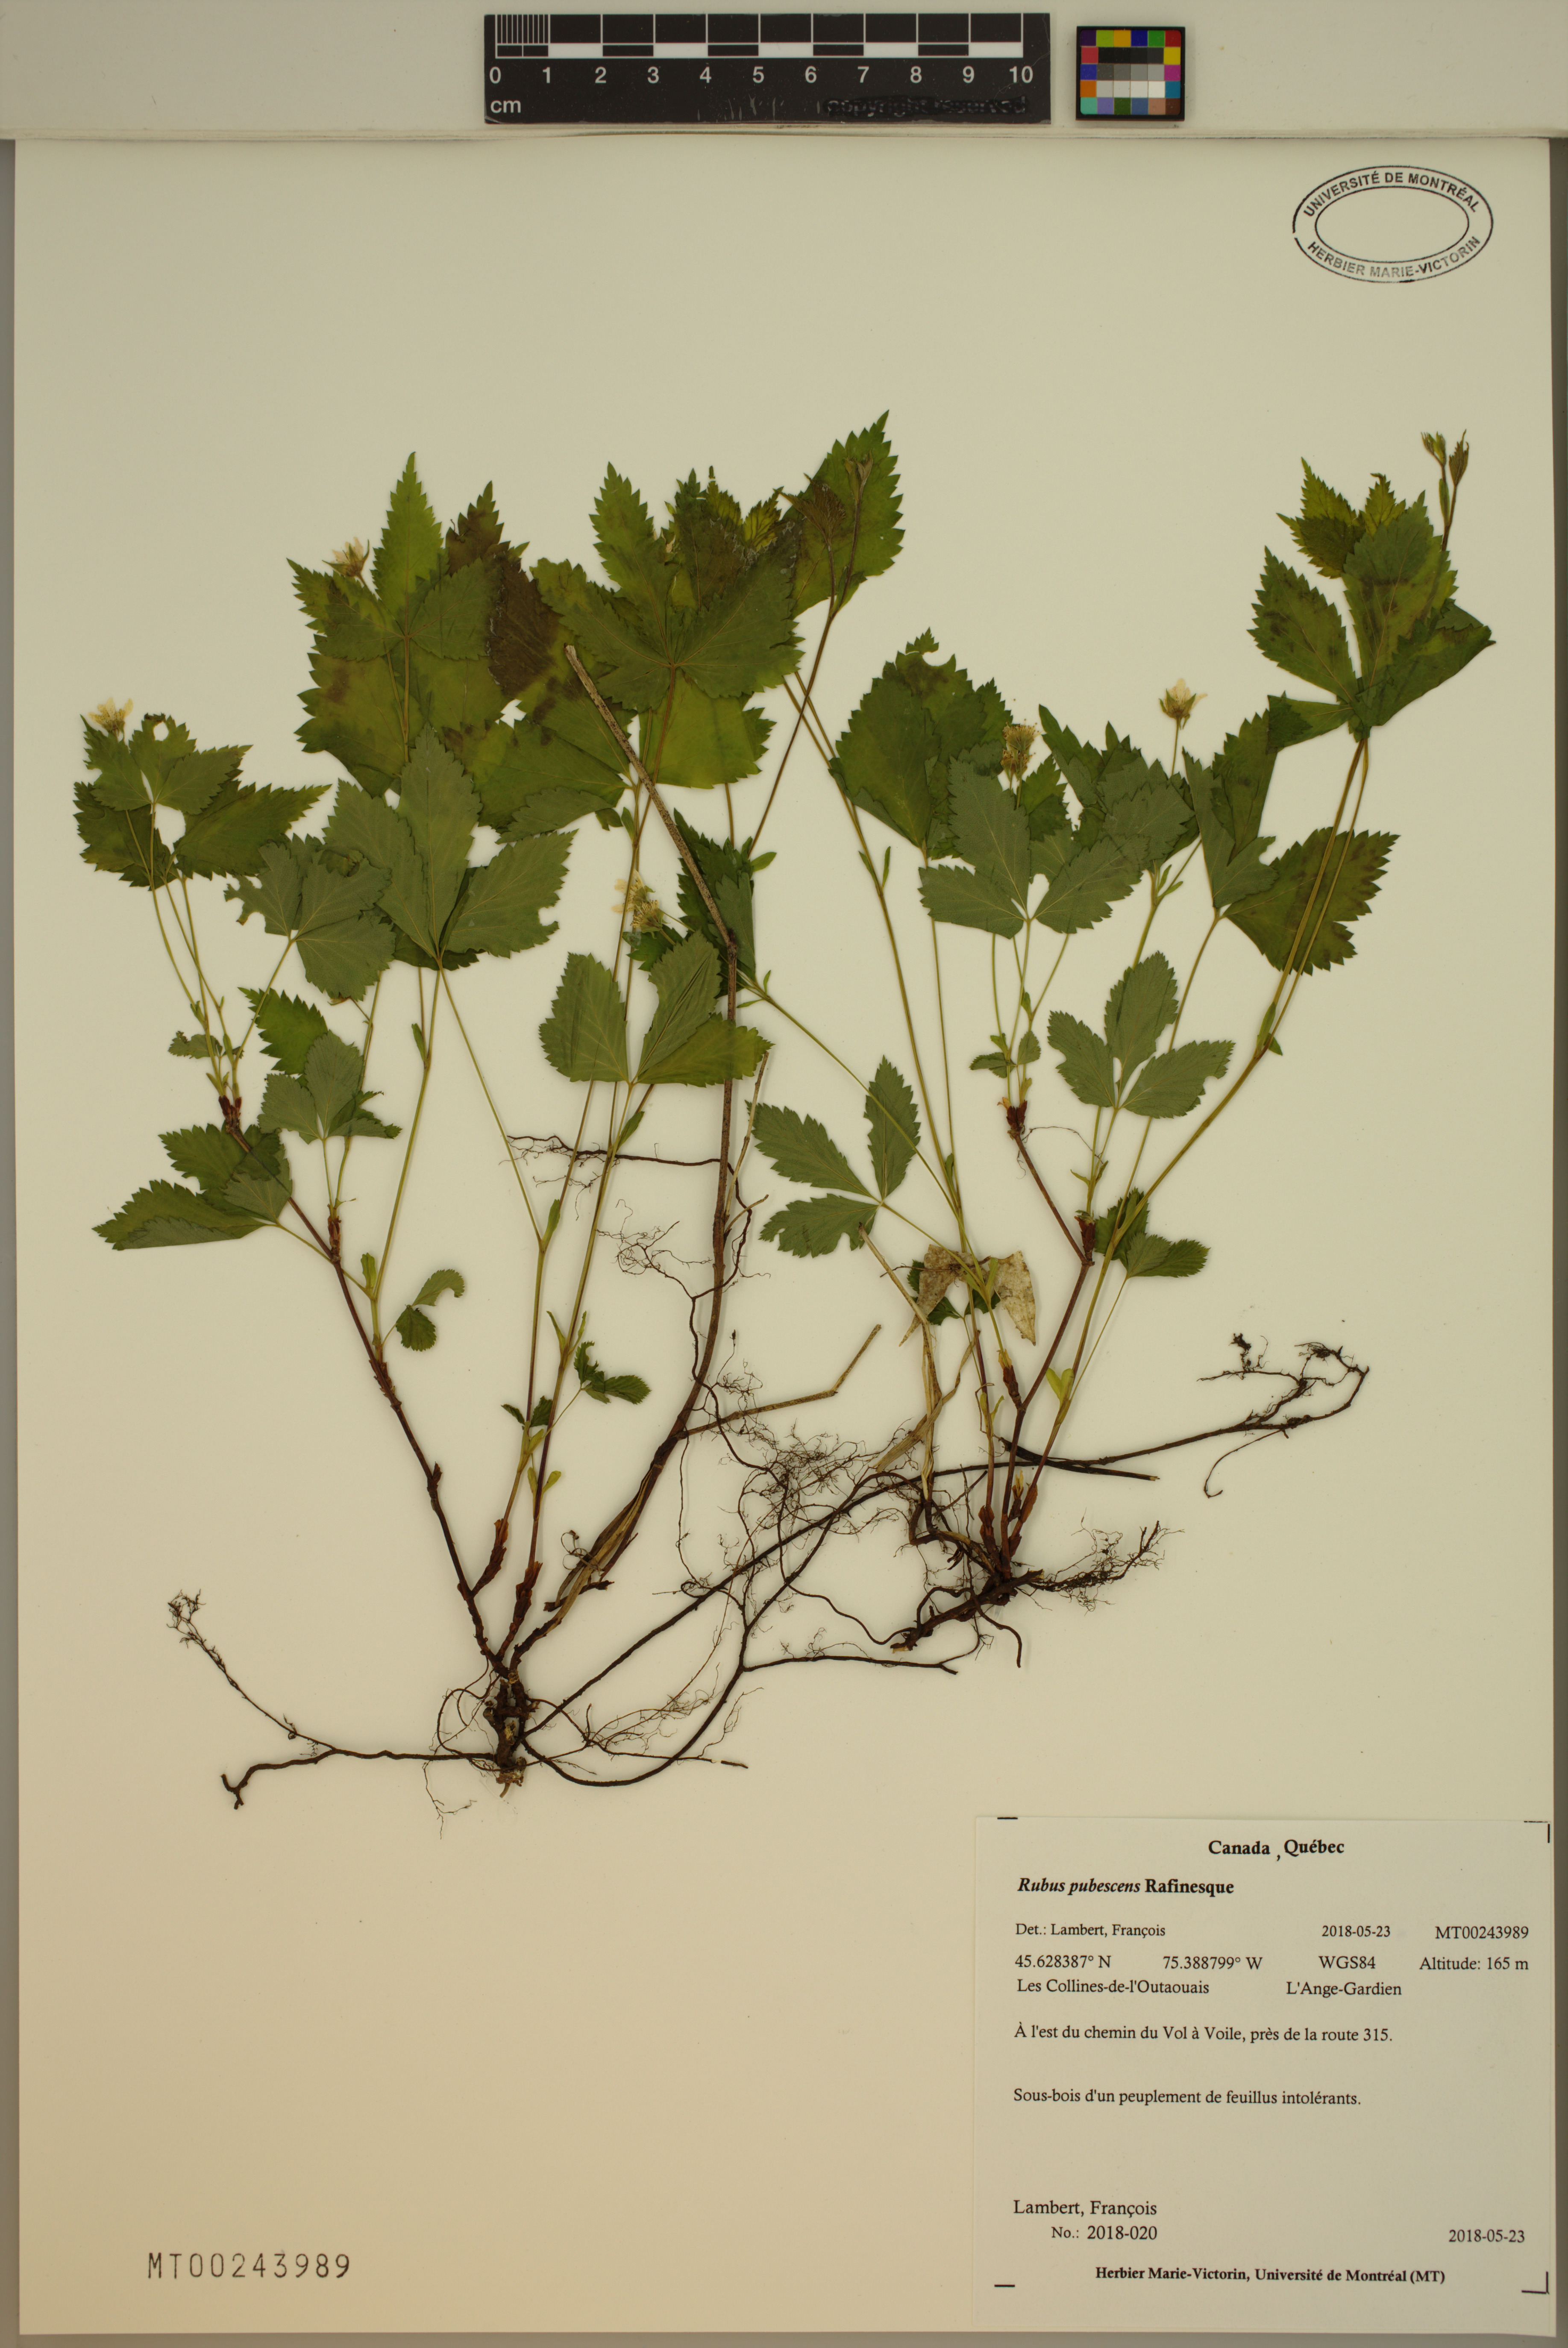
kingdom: Plantae
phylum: Tracheophyta
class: Magnoliopsida
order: Rosales
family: Rosaceae
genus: Rubus
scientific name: Rubus pubescens
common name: Dwarf raspberry
